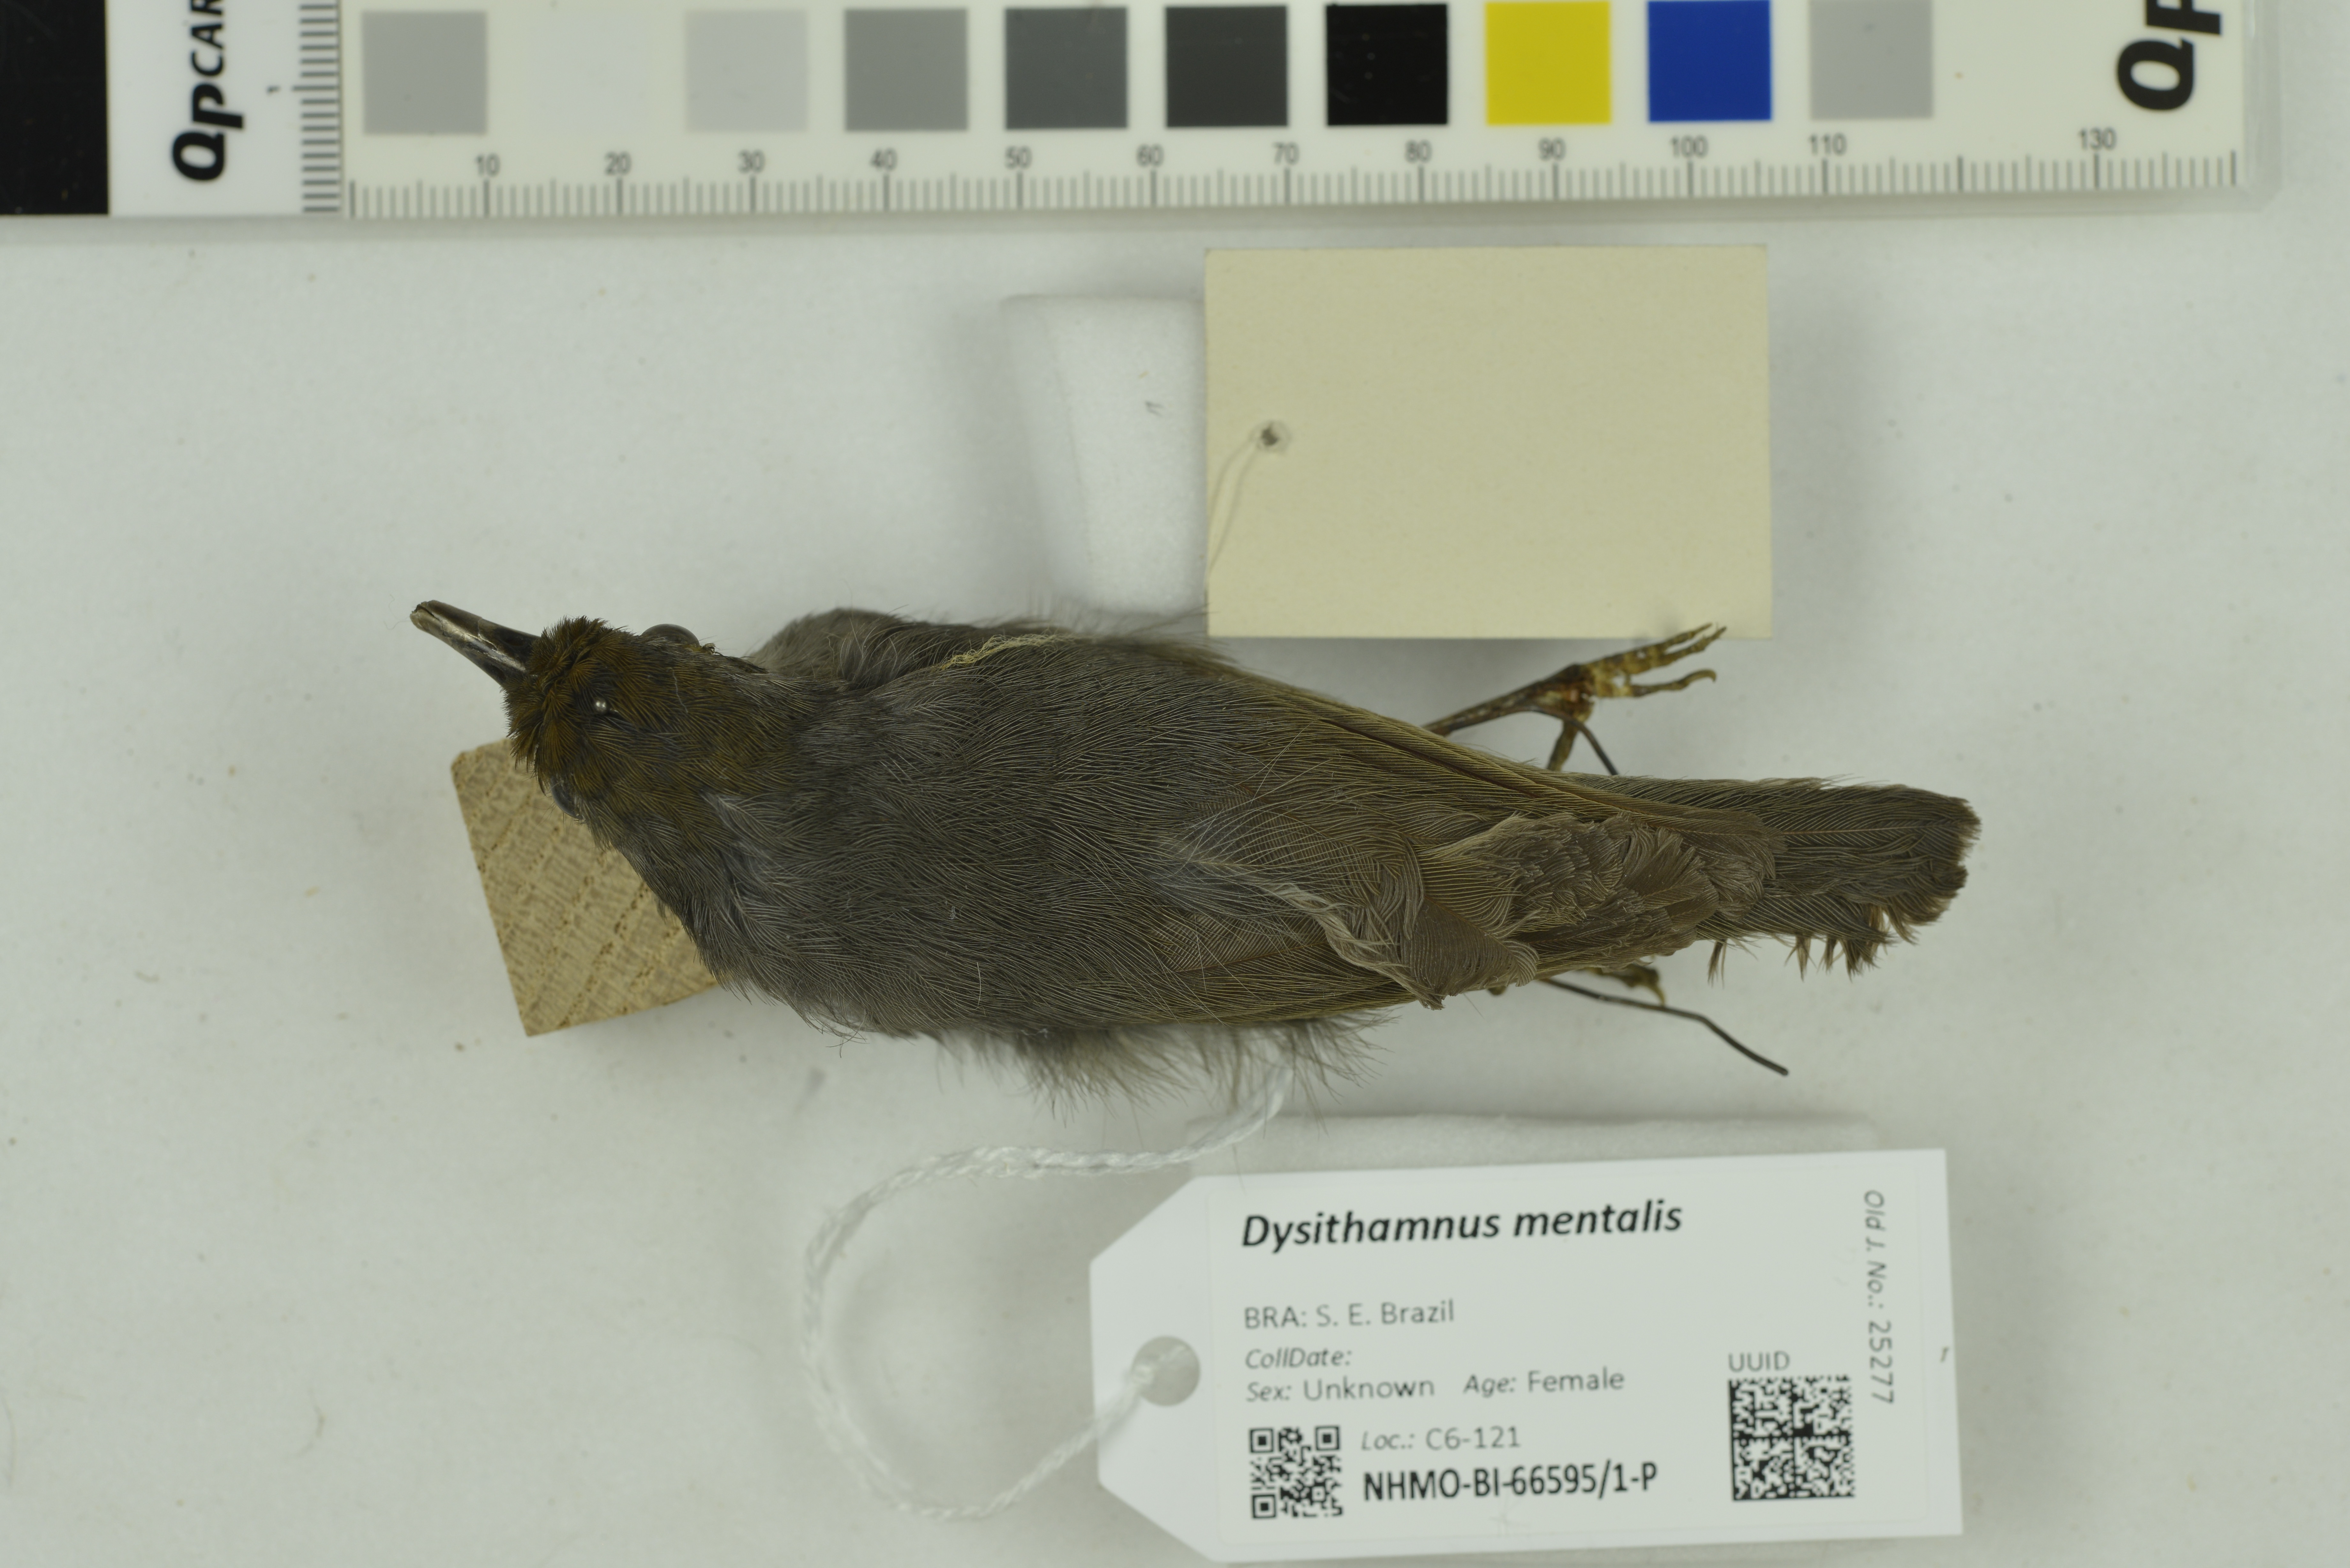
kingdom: Animalia
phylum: Chordata
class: Aves
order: Passeriformes
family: Thamnophilidae
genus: Dysithamnus
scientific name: Dysithamnus mentalis
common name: Plain antvireo
